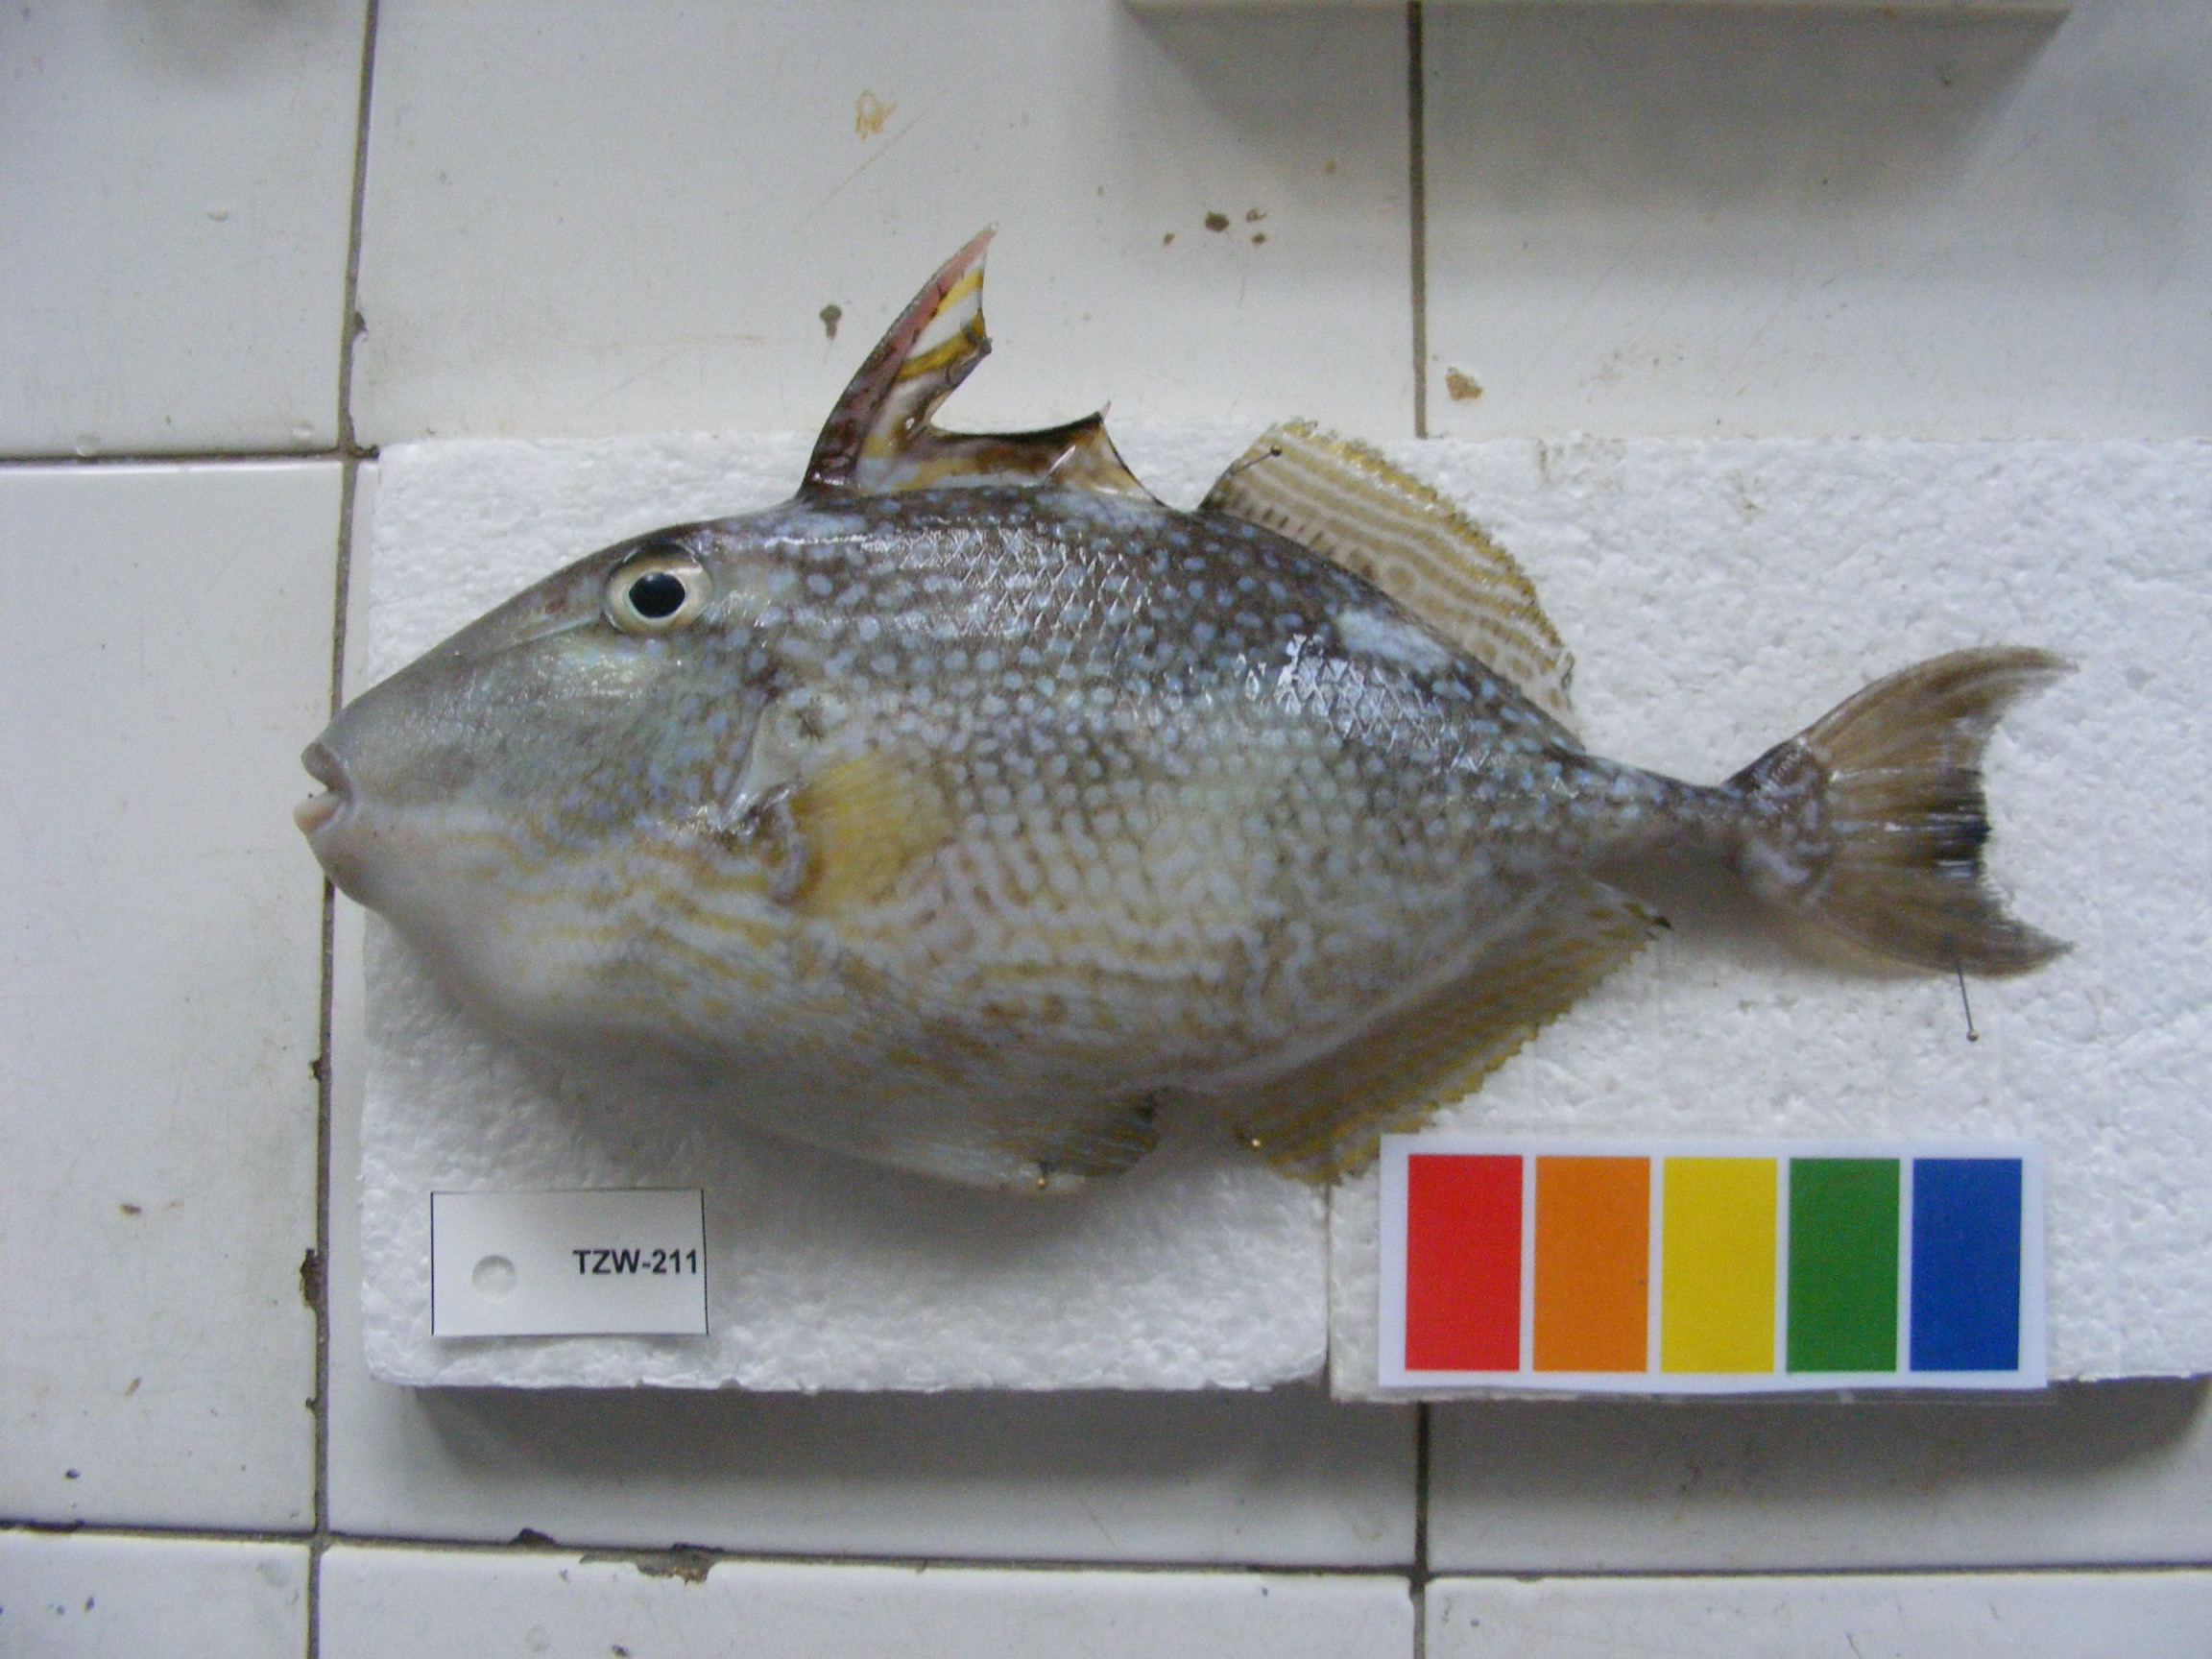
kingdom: Animalia
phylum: Chordata
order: Tetraodontiformes
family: Balistidae
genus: Abalistes
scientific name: Abalistes stellatus
